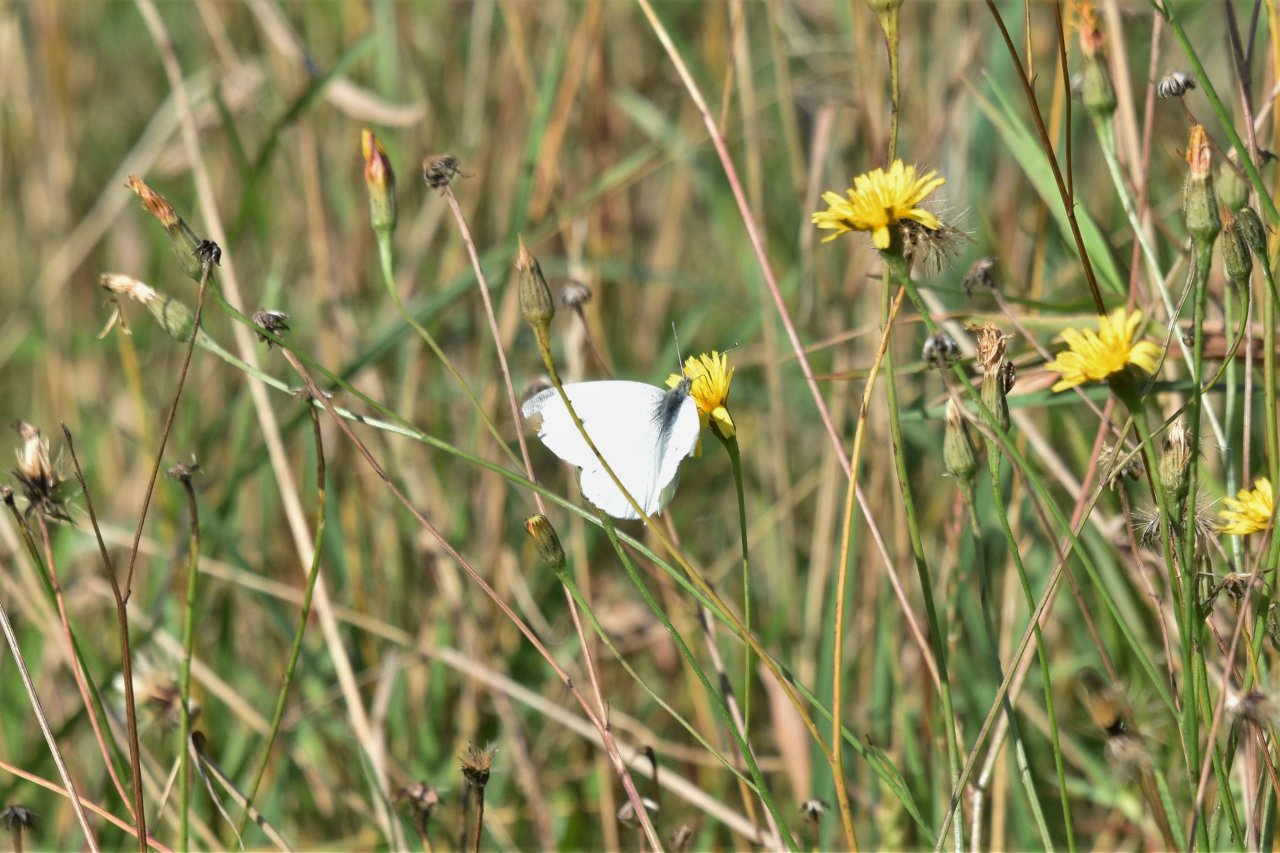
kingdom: Animalia
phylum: Arthropoda
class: Insecta
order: Lepidoptera
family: Pieridae
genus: Pieris
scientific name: Pieris rapae
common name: Cabbage White
